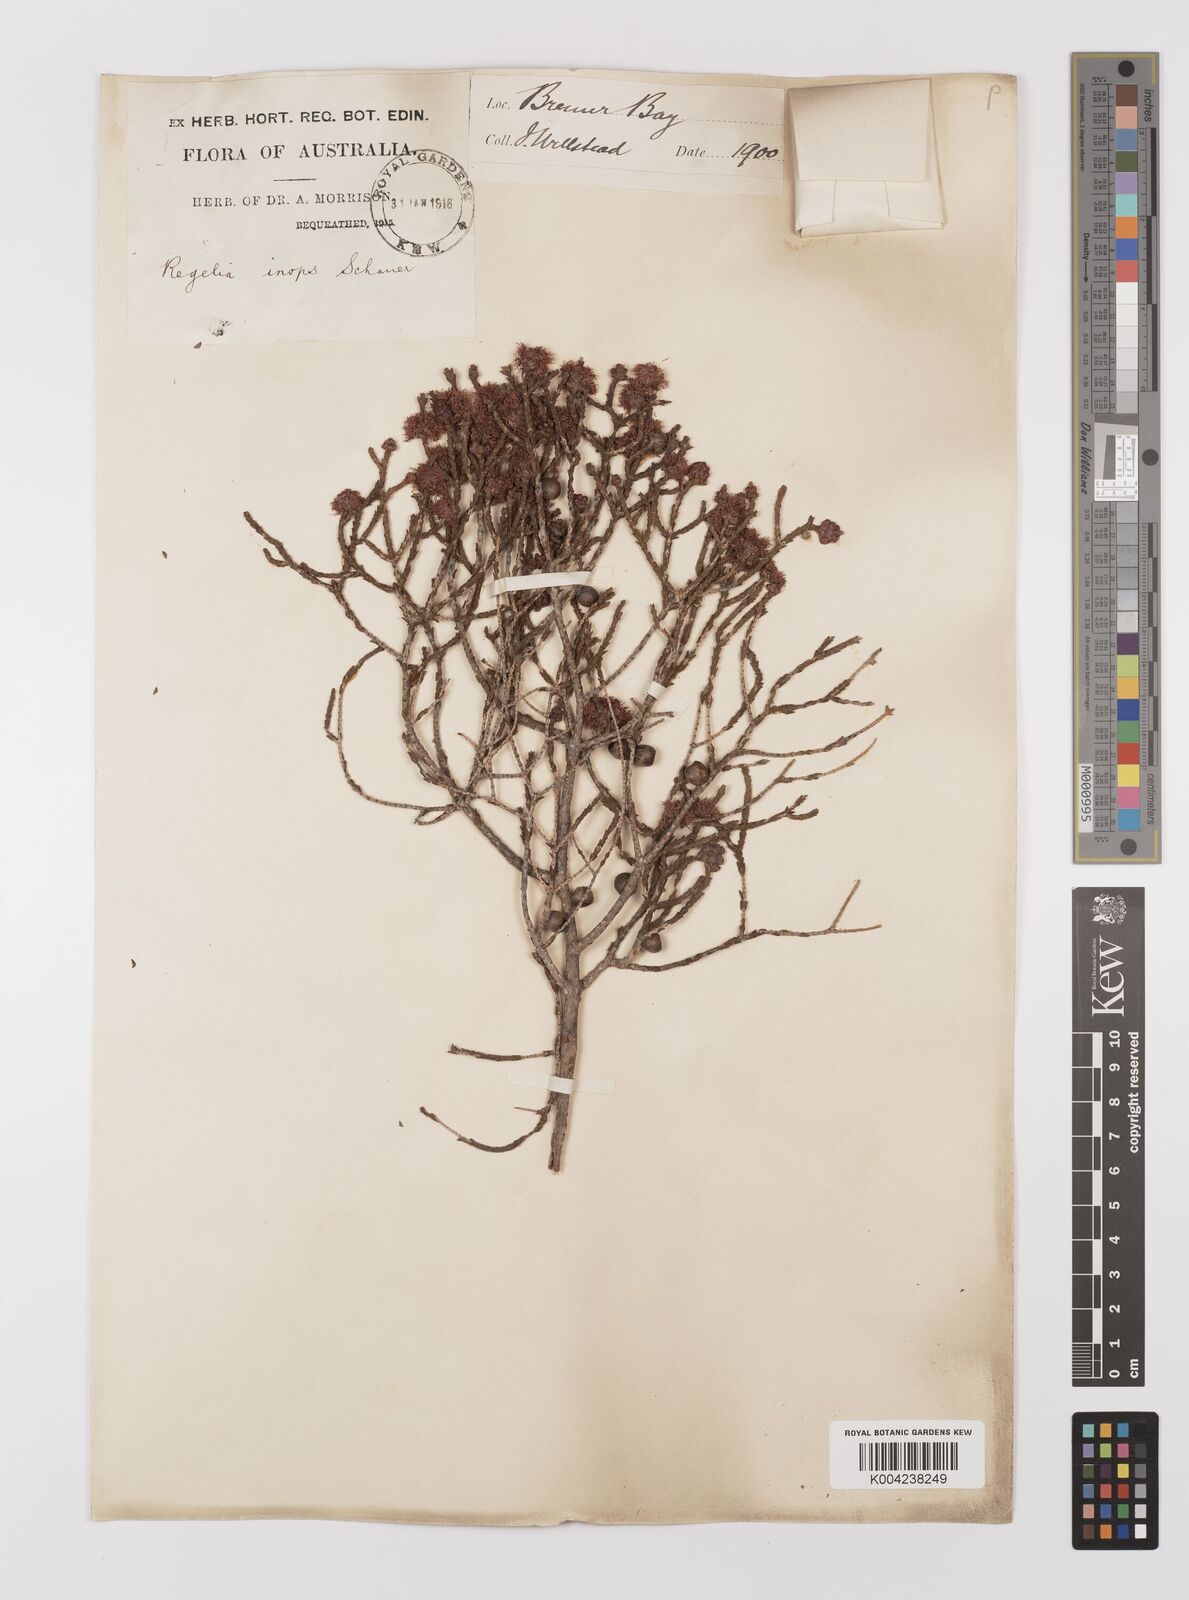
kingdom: Plantae
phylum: Tracheophyta
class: Magnoliopsida
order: Myrtales
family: Myrtaceae
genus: Melaleuca
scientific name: Melaleuca inops
